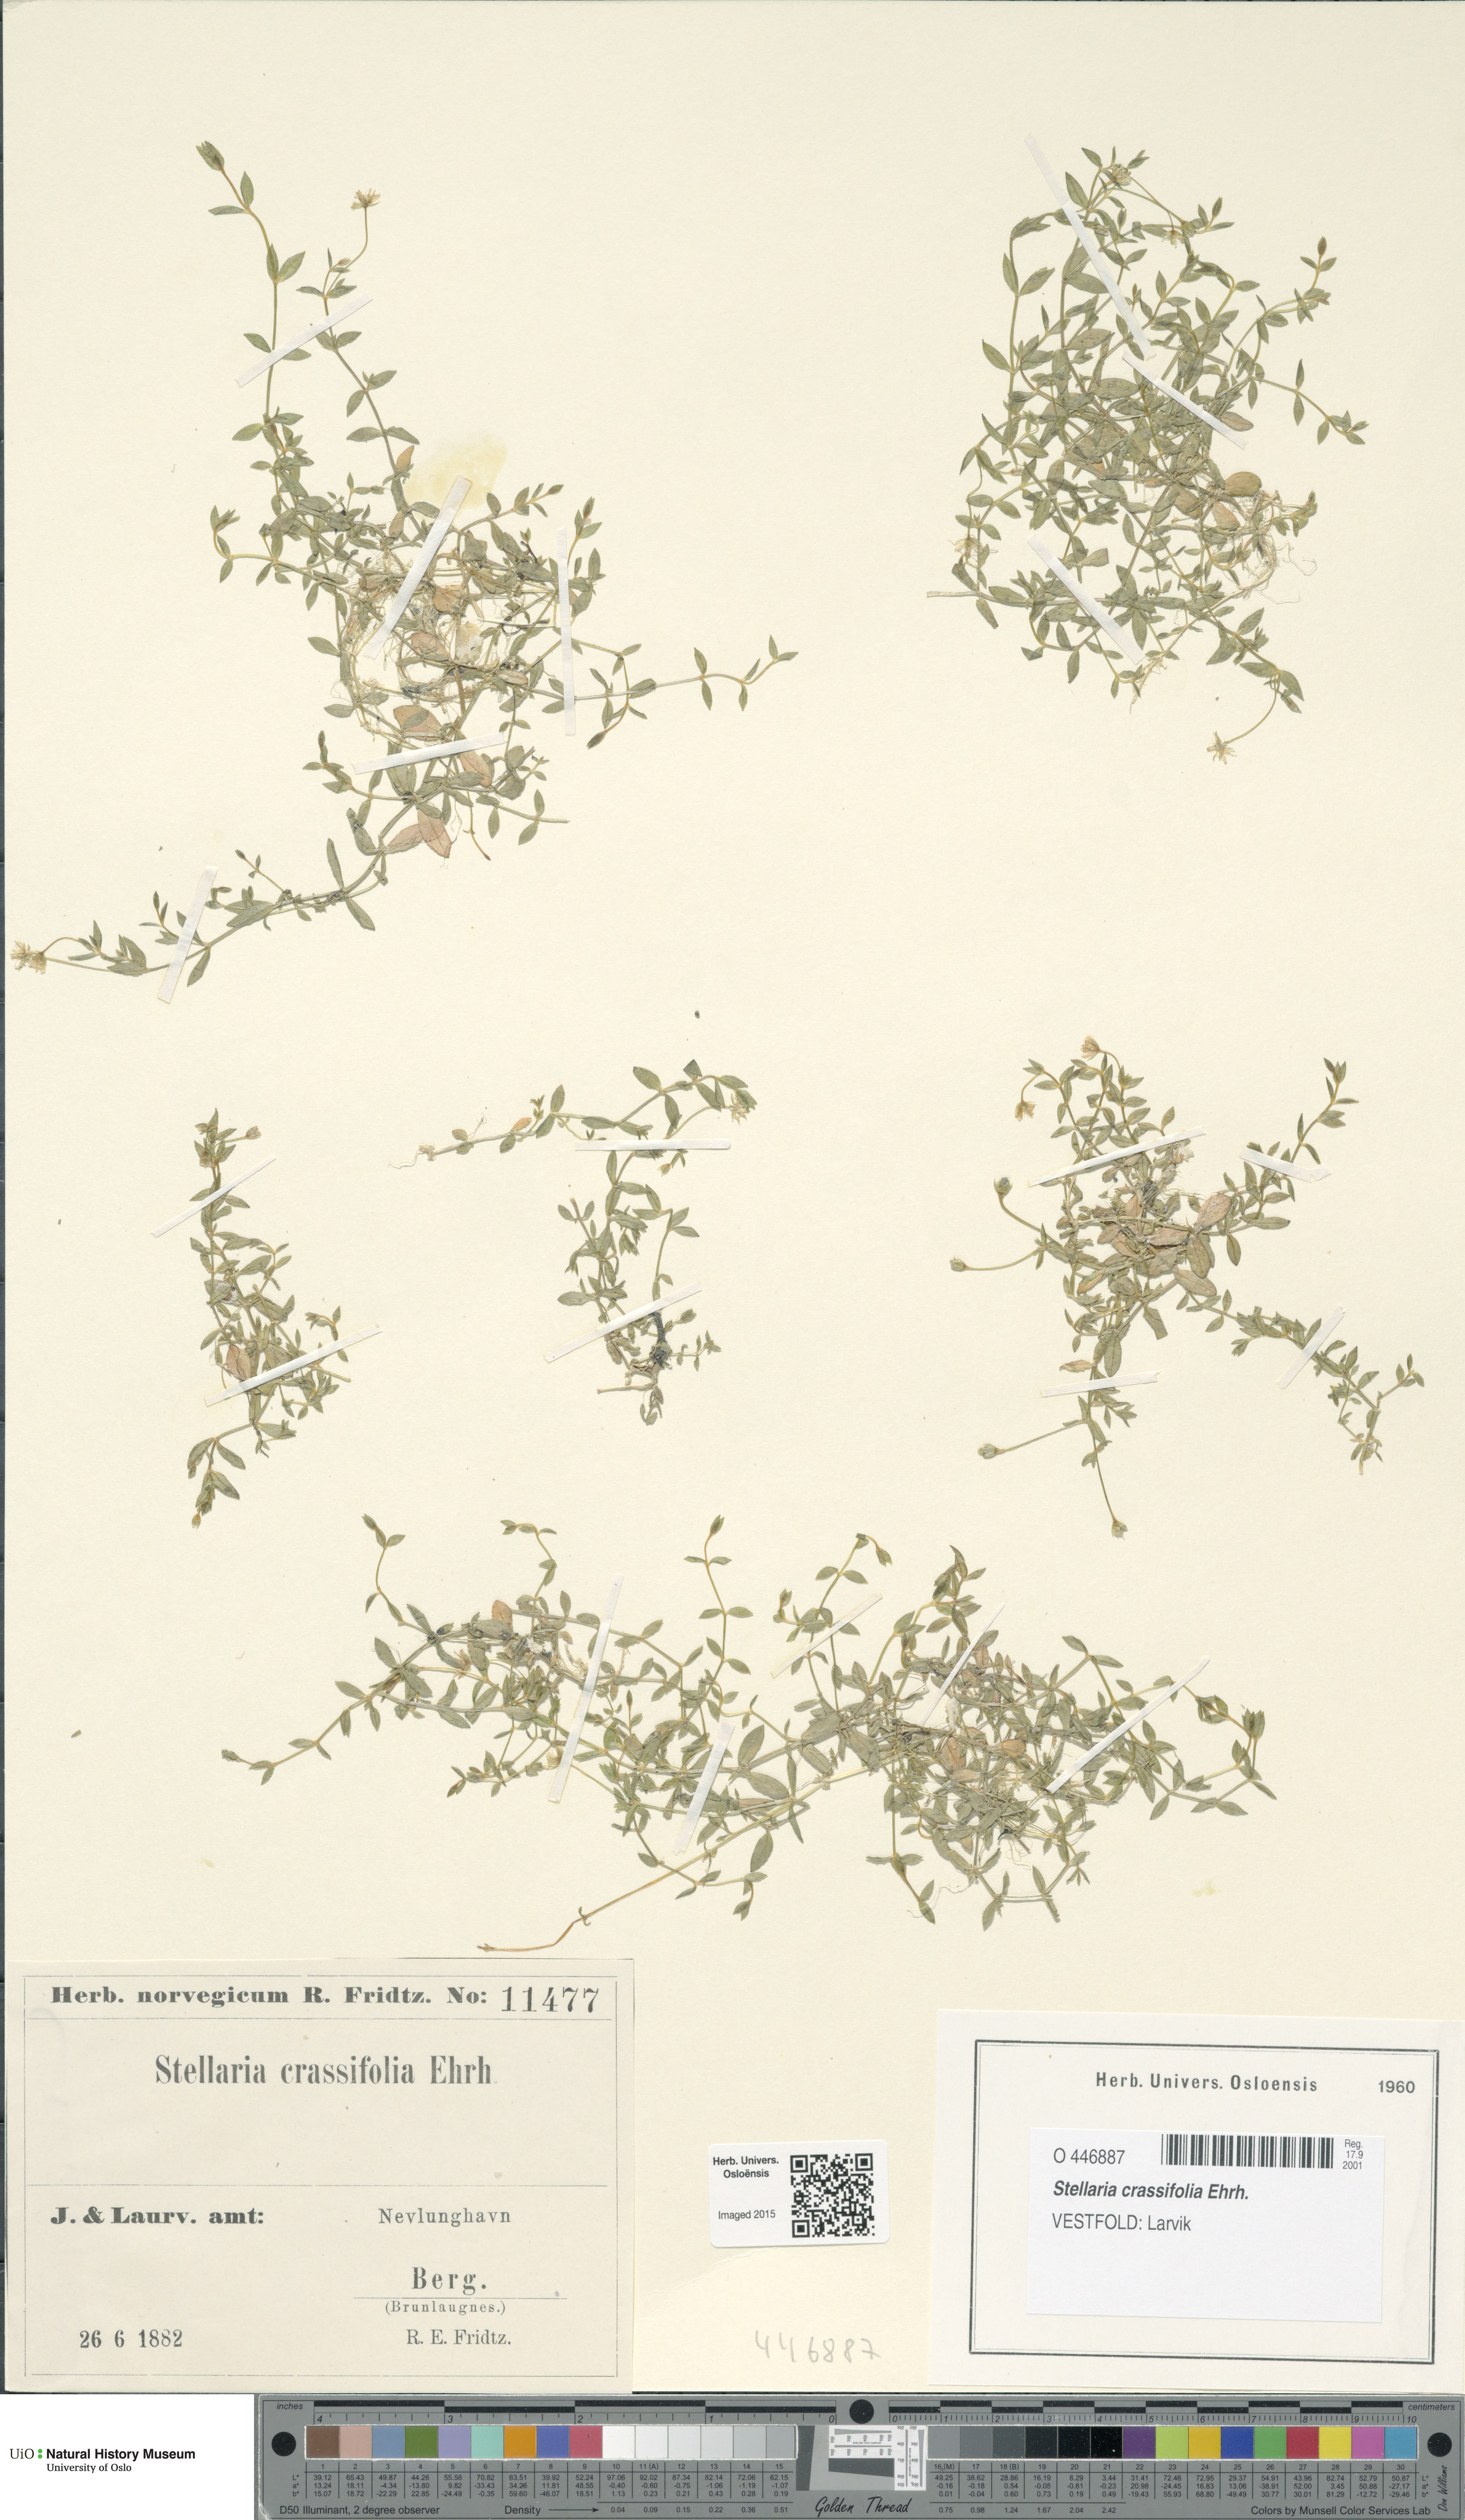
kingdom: Plantae
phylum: Tracheophyta
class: Magnoliopsida
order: Caryophyllales
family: Caryophyllaceae
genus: Stellaria
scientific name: Stellaria crassifolia
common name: Fleshy starwort
